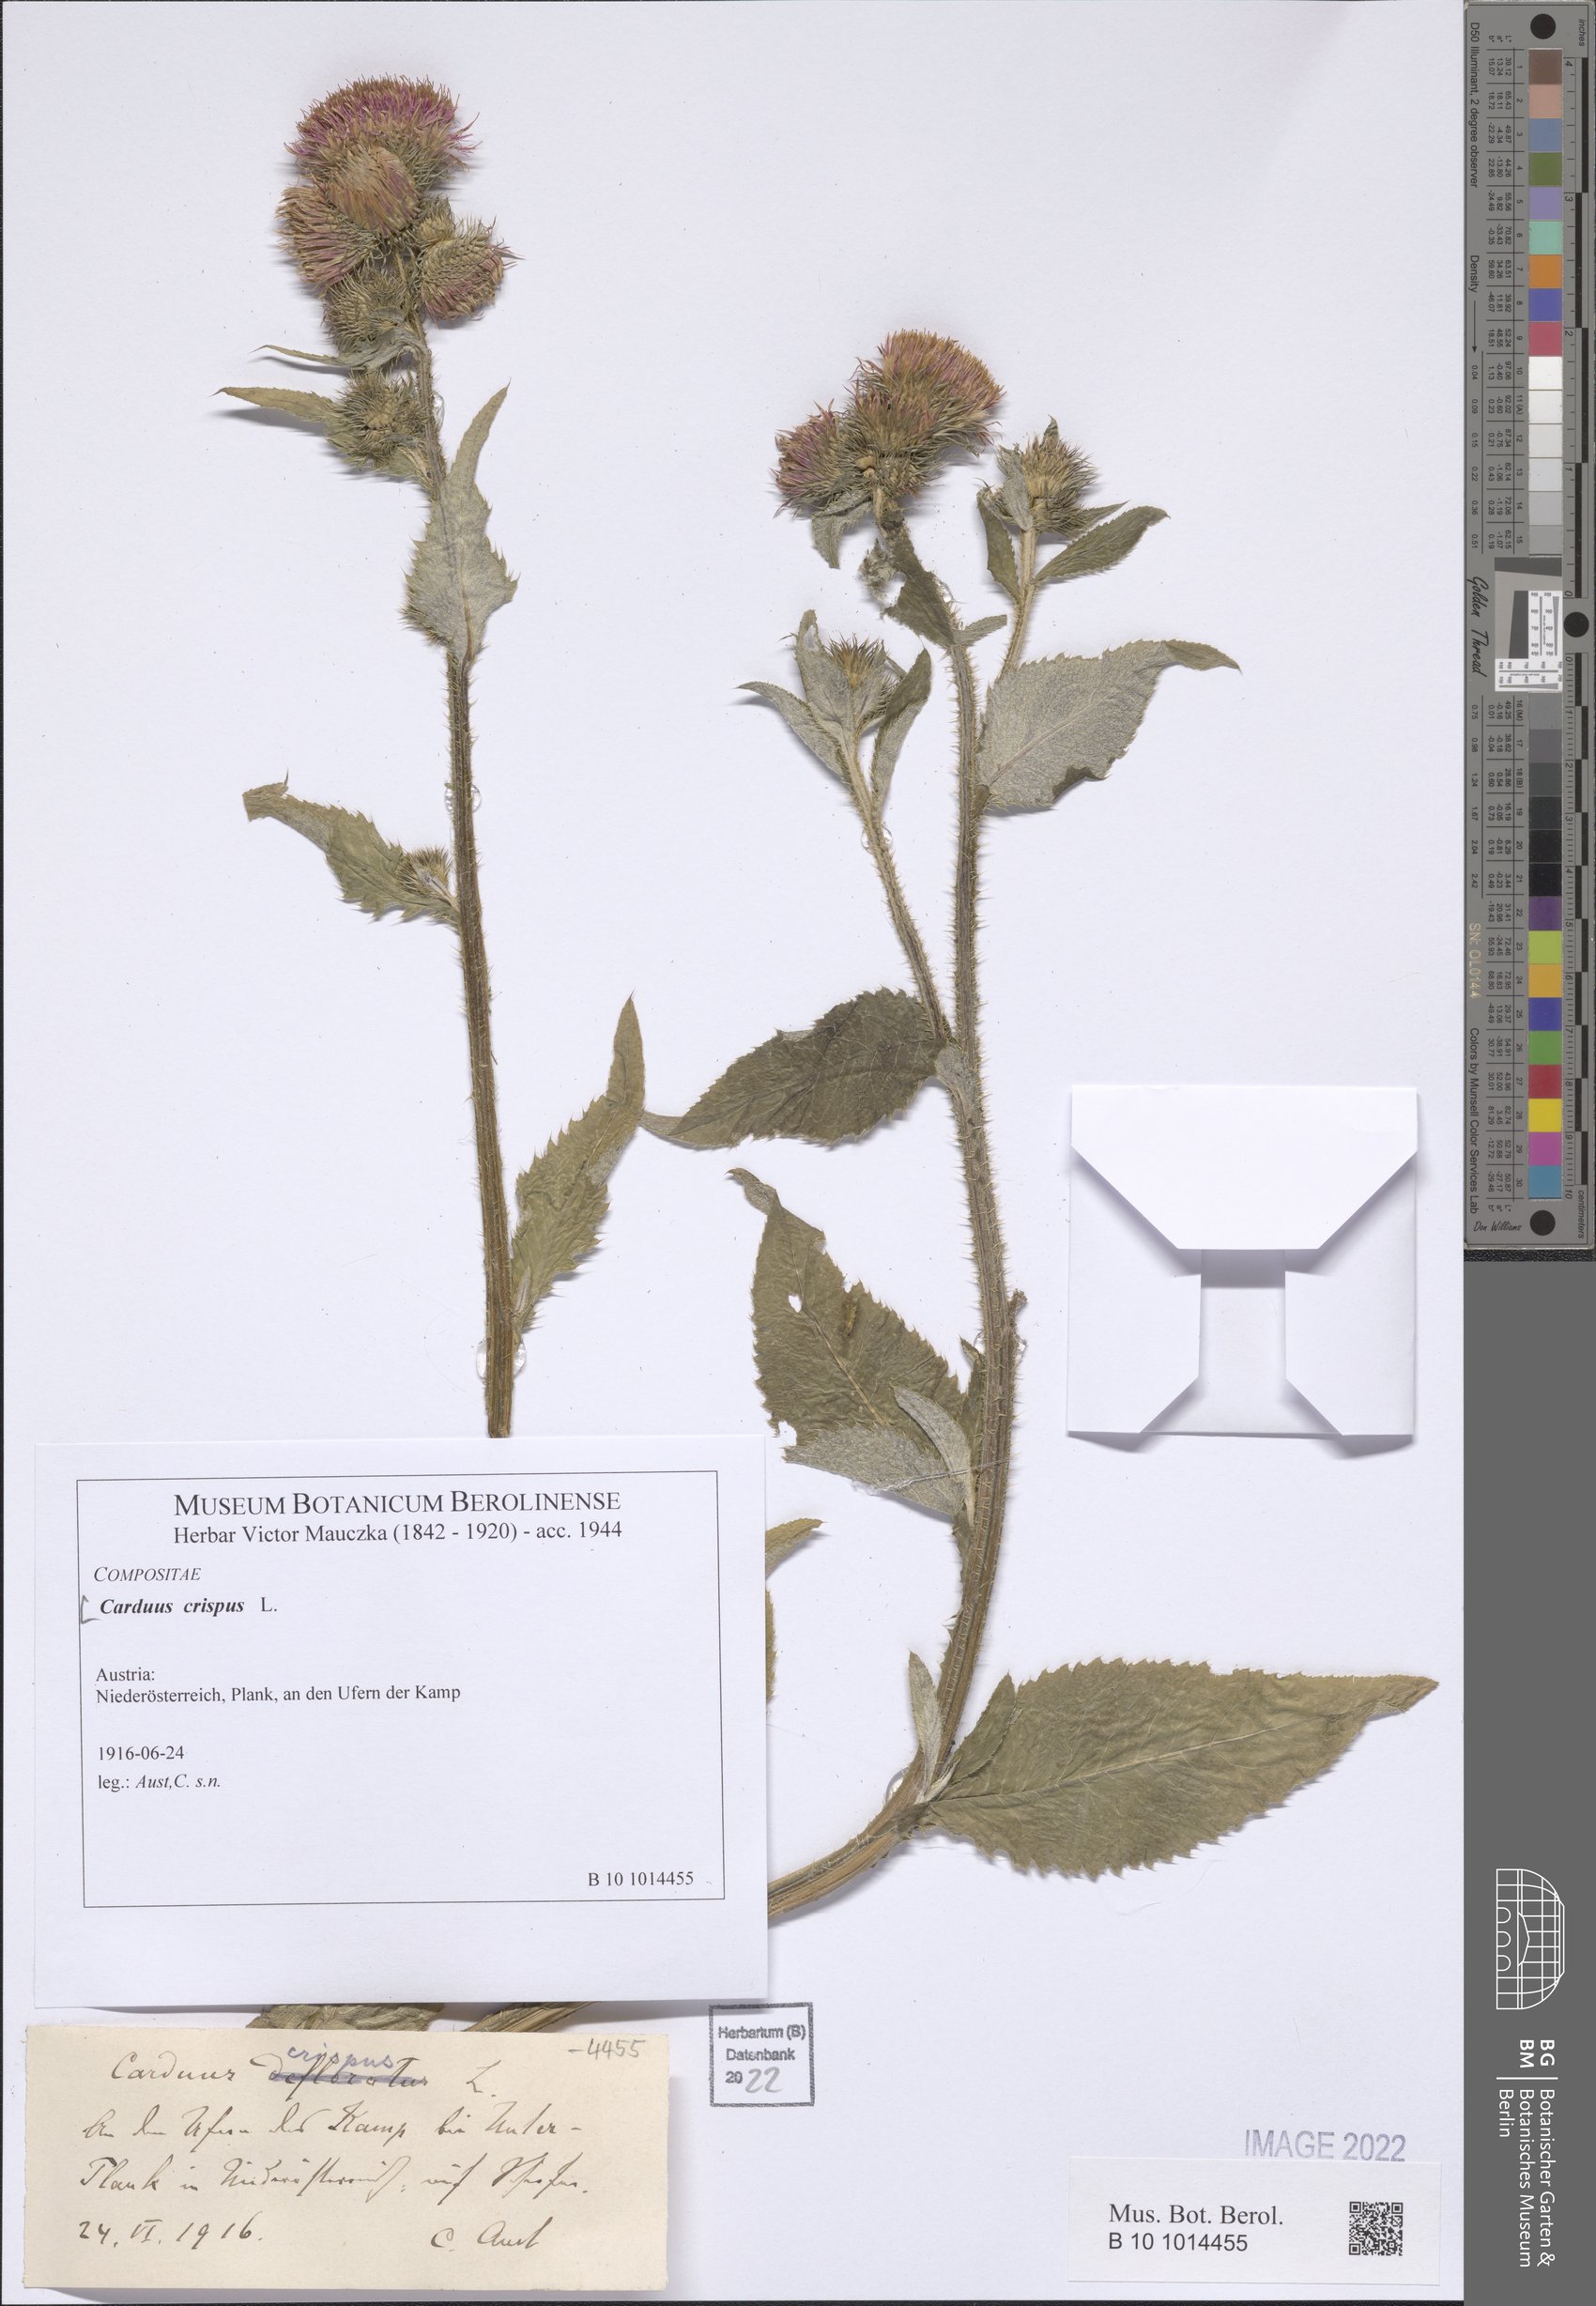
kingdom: Plantae
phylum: Tracheophyta
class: Magnoliopsida
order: Asterales
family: Asteraceae
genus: Carduus
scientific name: Carduus crispus
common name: Welted thistle
